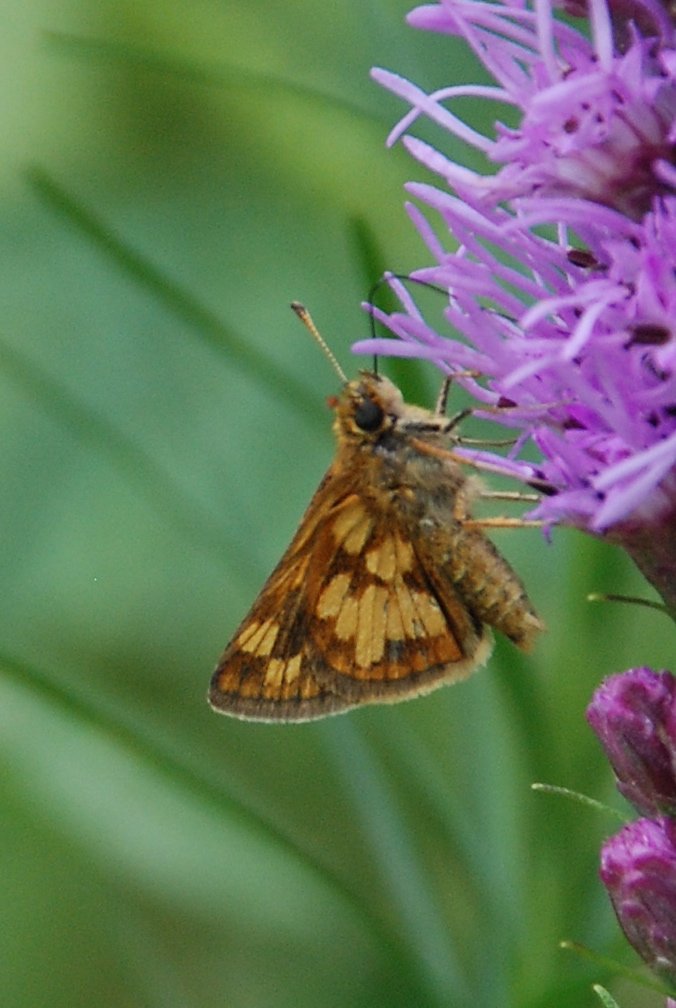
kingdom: Animalia
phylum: Arthropoda
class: Insecta
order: Lepidoptera
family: Hesperiidae
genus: Polites
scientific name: Polites coras
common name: Peck's Skipper
